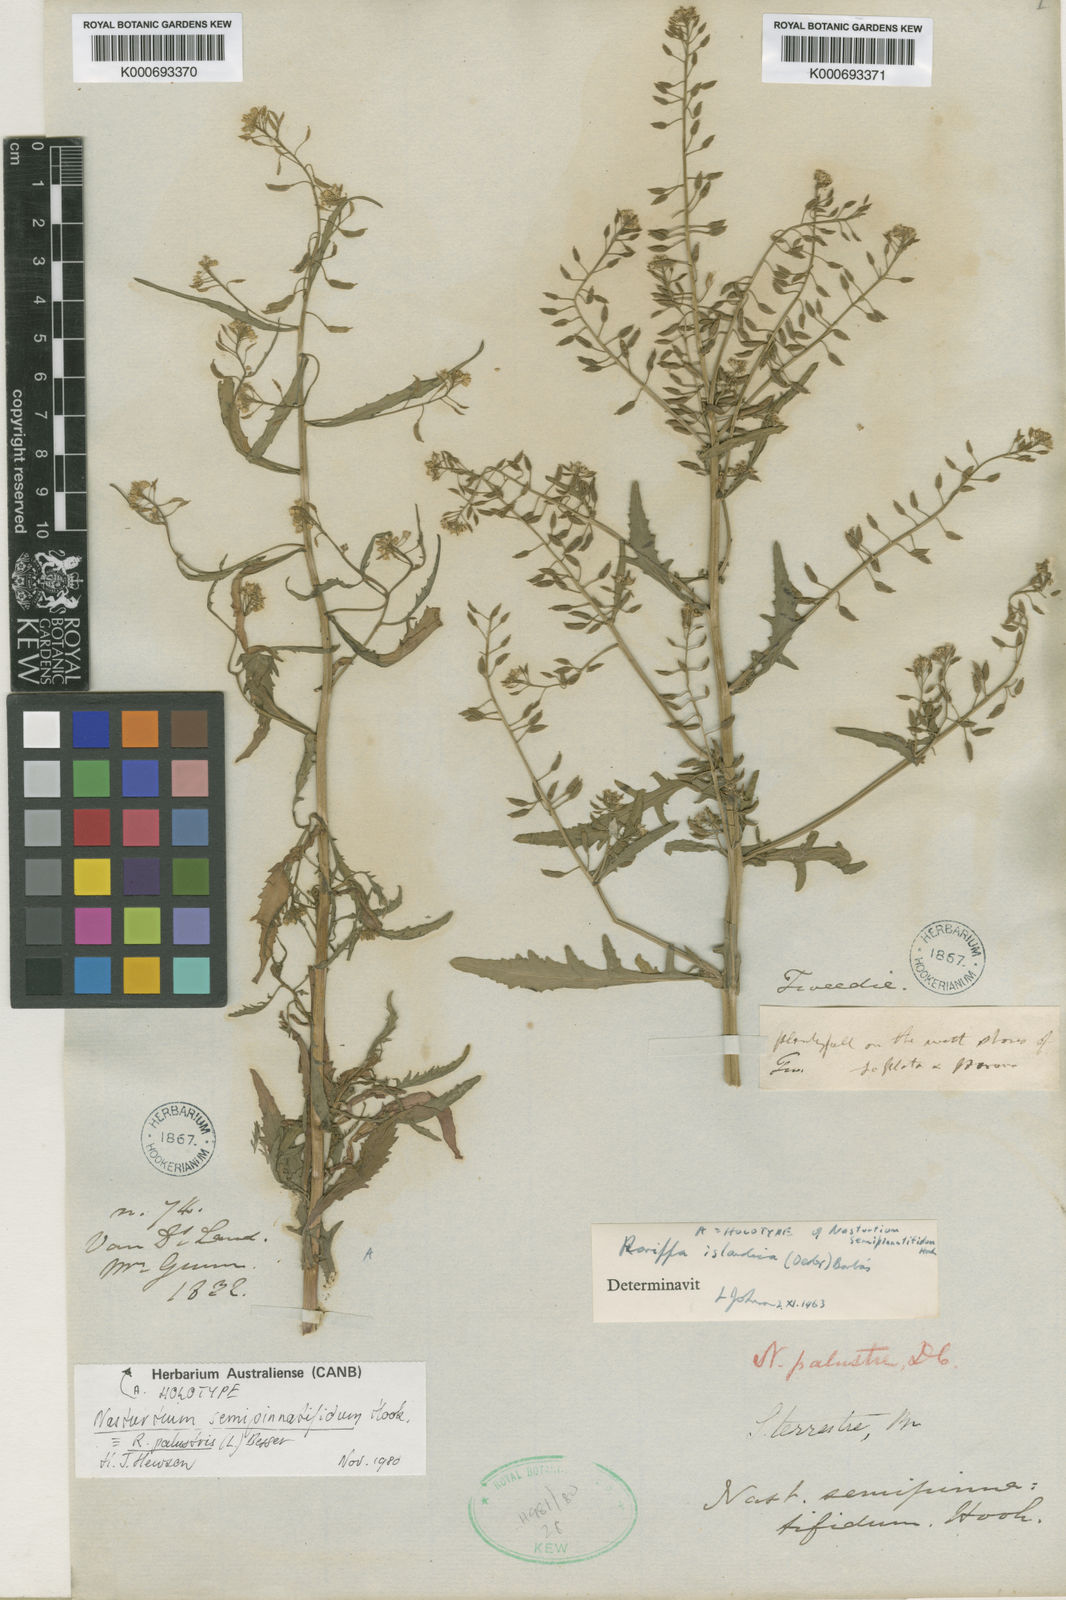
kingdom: Plantae
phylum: Tracheophyta
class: Magnoliopsida
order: Brassicales
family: Brassicaceae
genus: Rorippa
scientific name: Rorippa palustris
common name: Marsh yellow-cress
